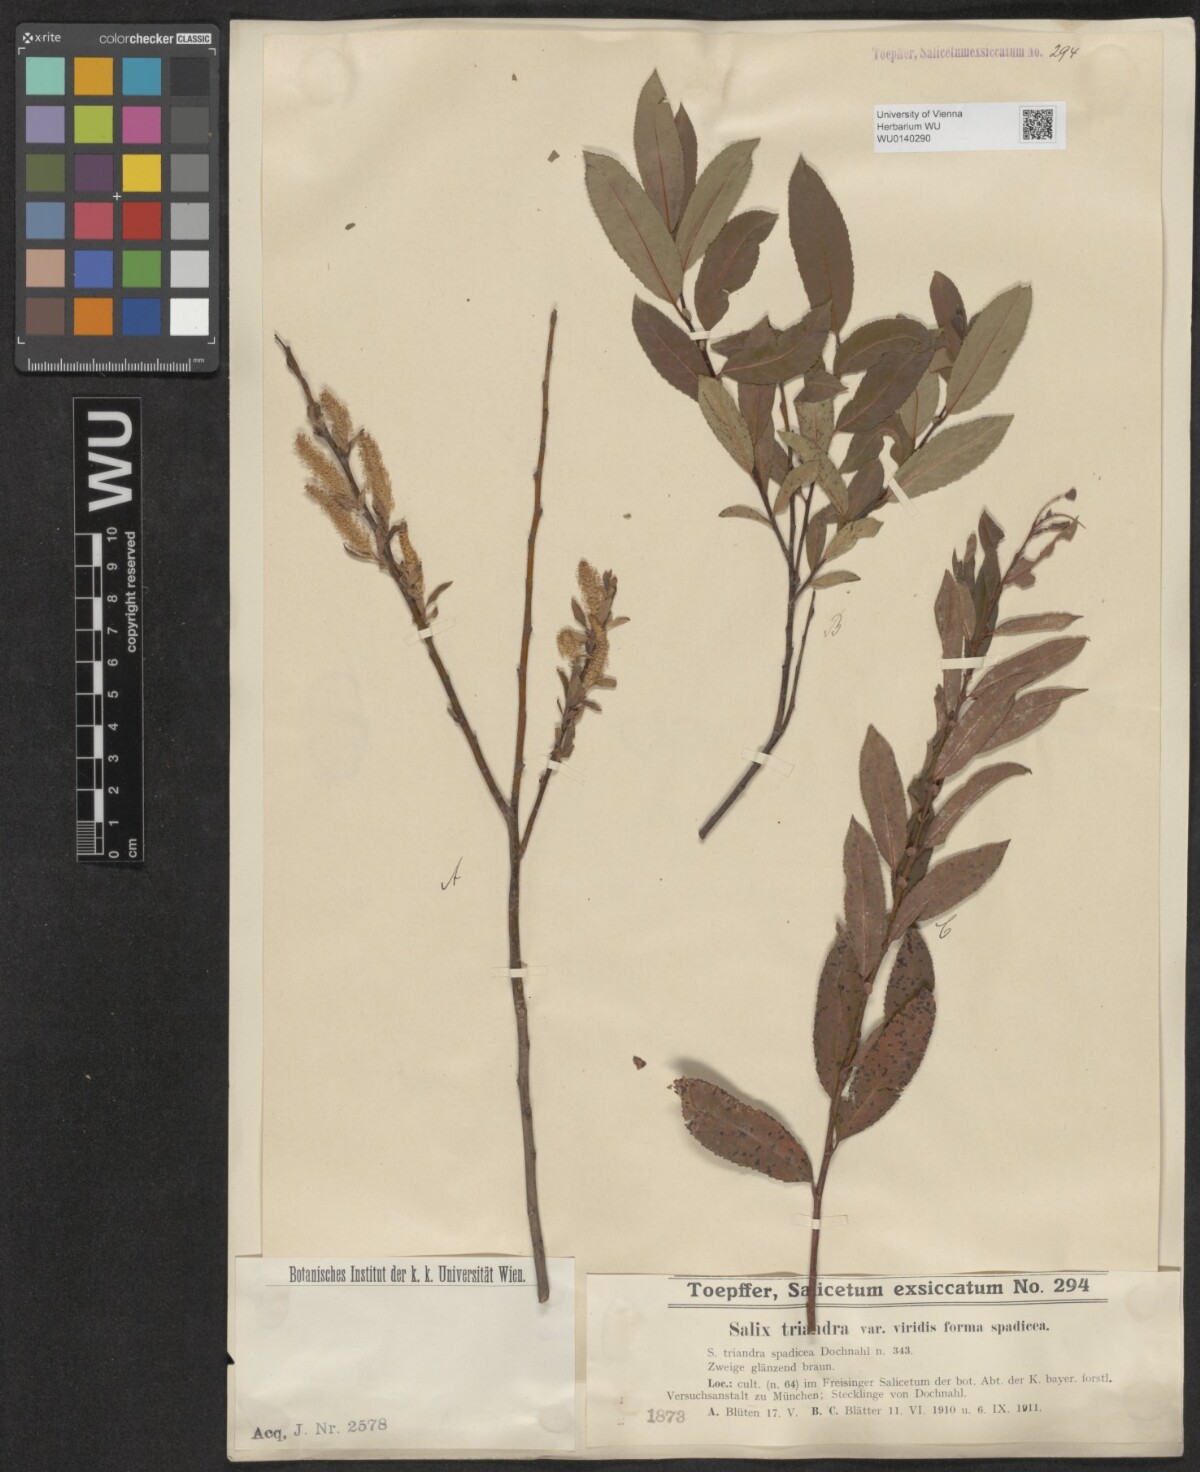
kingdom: Plantae
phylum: Tracheophyta
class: Magnoliopsida
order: Malpighiales
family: Salicaceae
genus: Salix
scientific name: Salix triandra
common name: Almond willow
